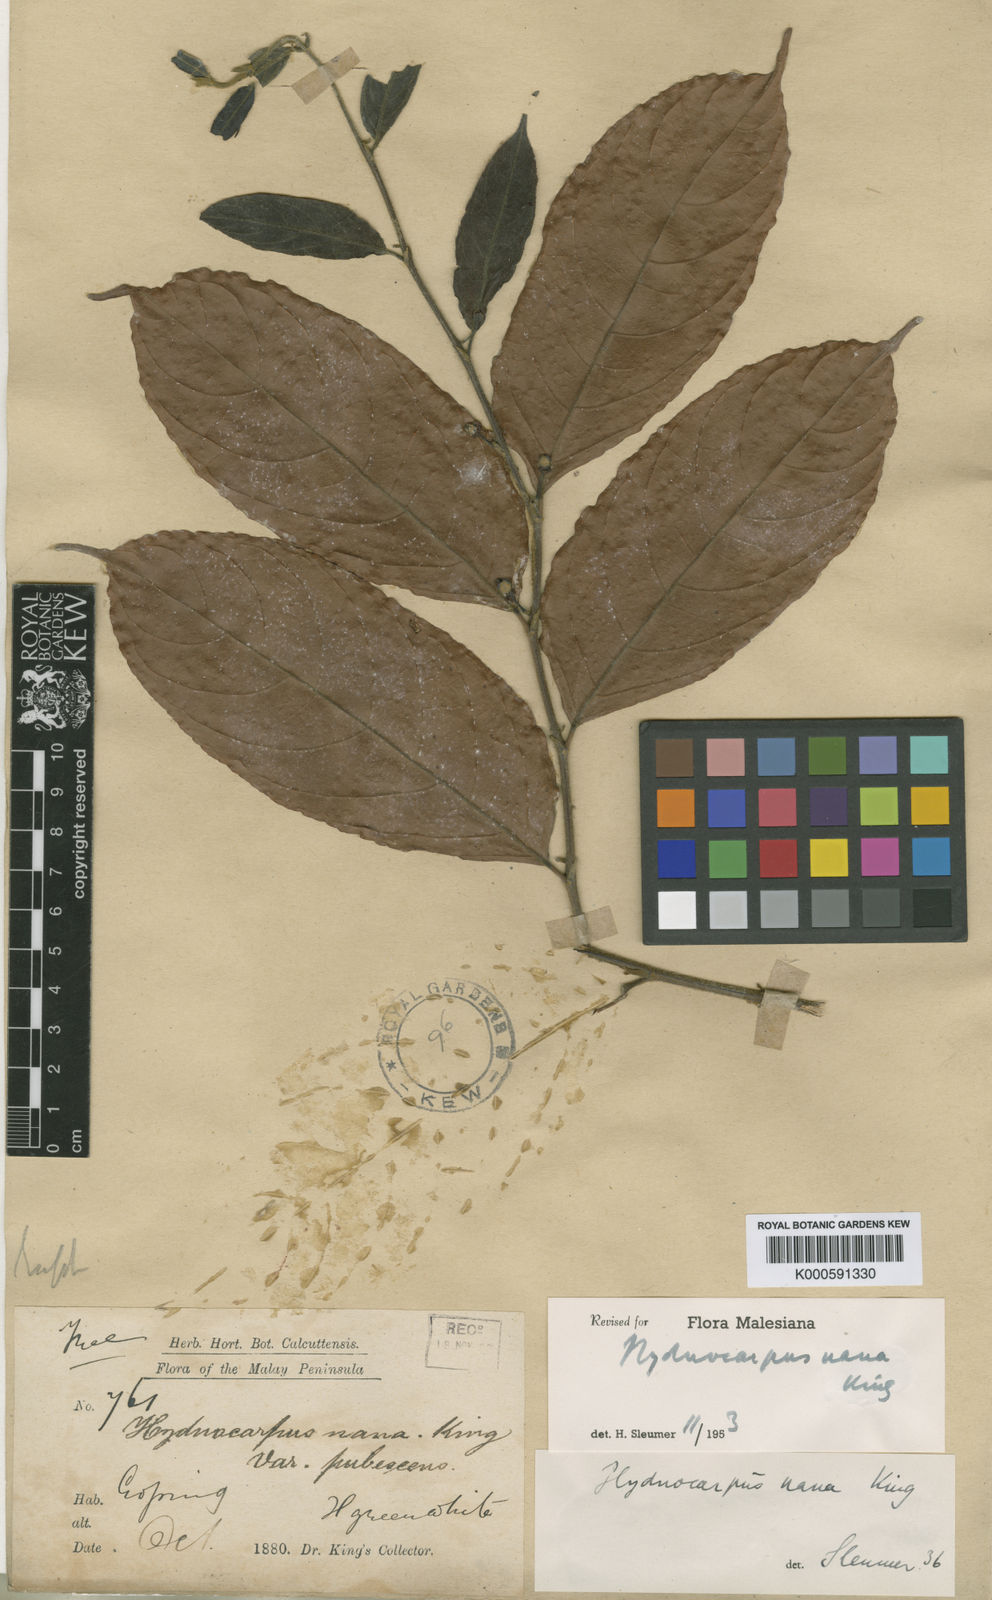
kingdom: Plantae
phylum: Tracheophyta
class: Magnoliopsida
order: Malpighiales
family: Achariaceae
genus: Hydnocarpus
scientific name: Hydnocarpus nanus
